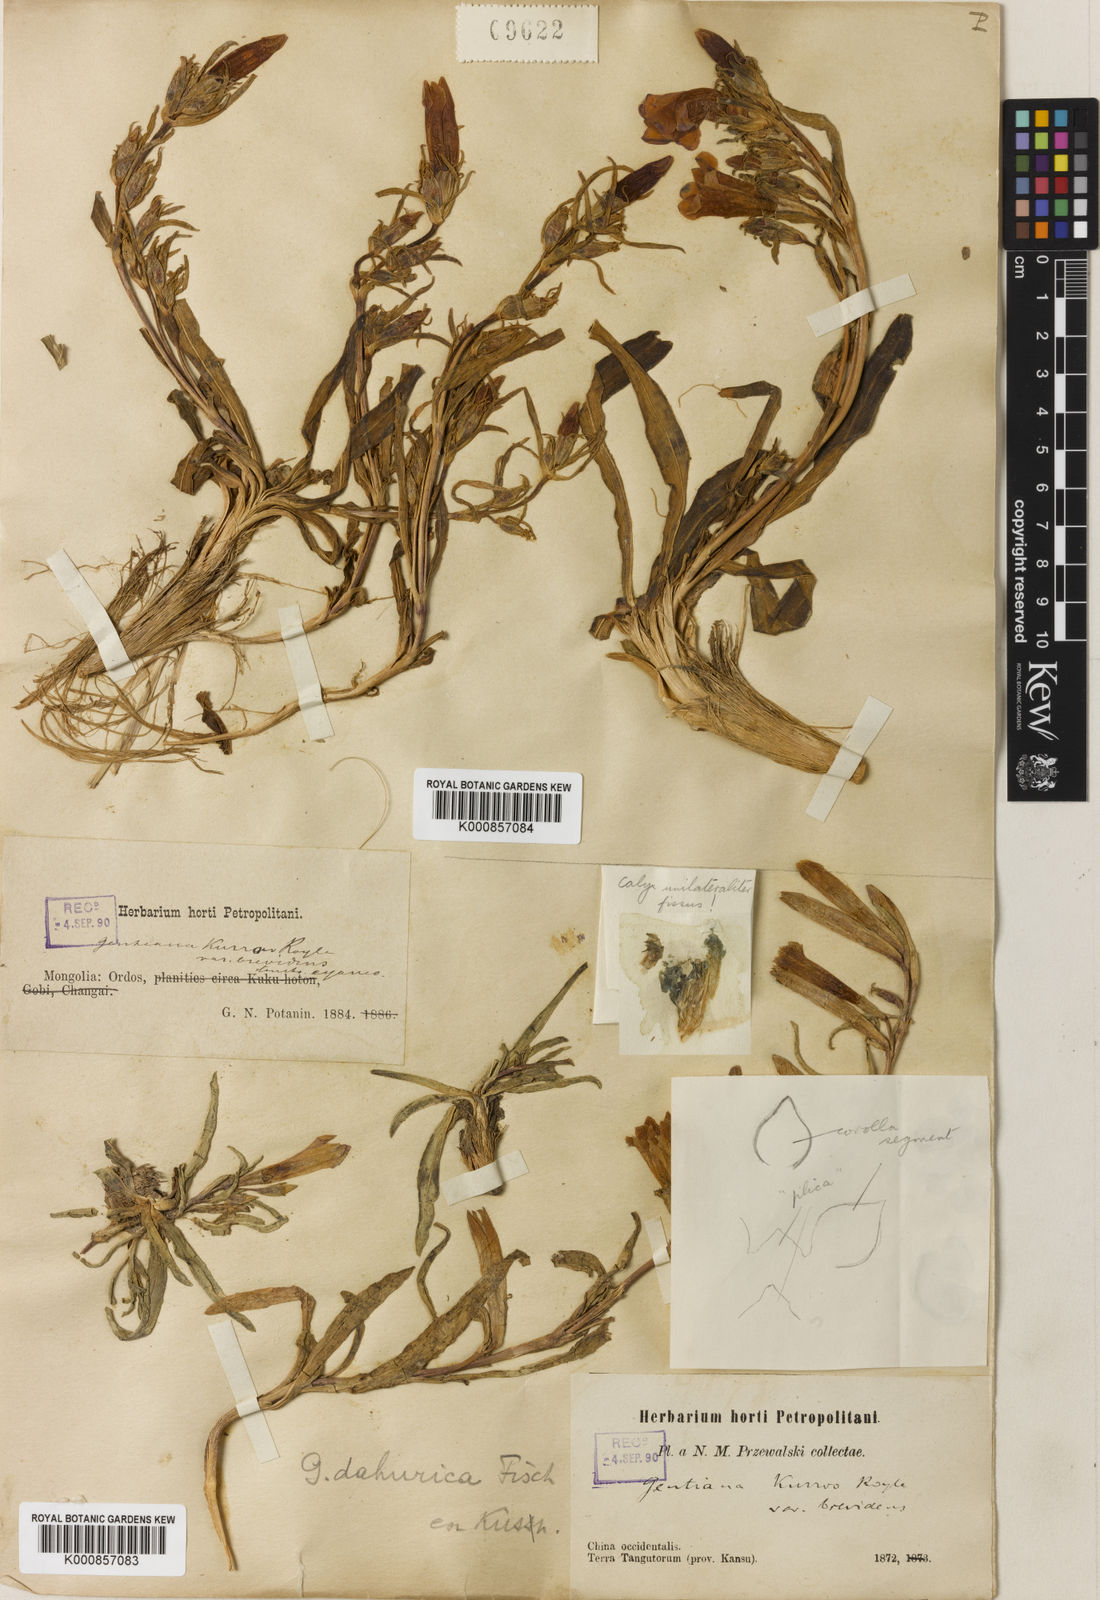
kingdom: Plantae
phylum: Tracheophyta
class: Magnoliopsida
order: Gentianales
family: Gentianaceae
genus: Gentiana
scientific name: Gentiana dahurica
